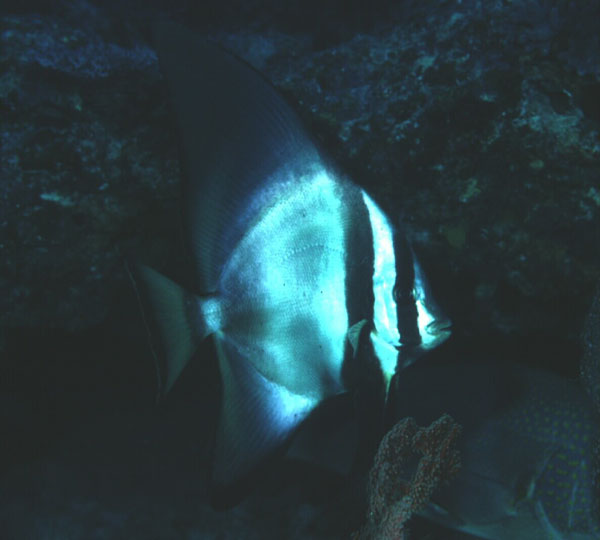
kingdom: Animalia
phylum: Chordata
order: Perciformes
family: Ephippidae
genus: Platax
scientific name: Platax pinnatus
